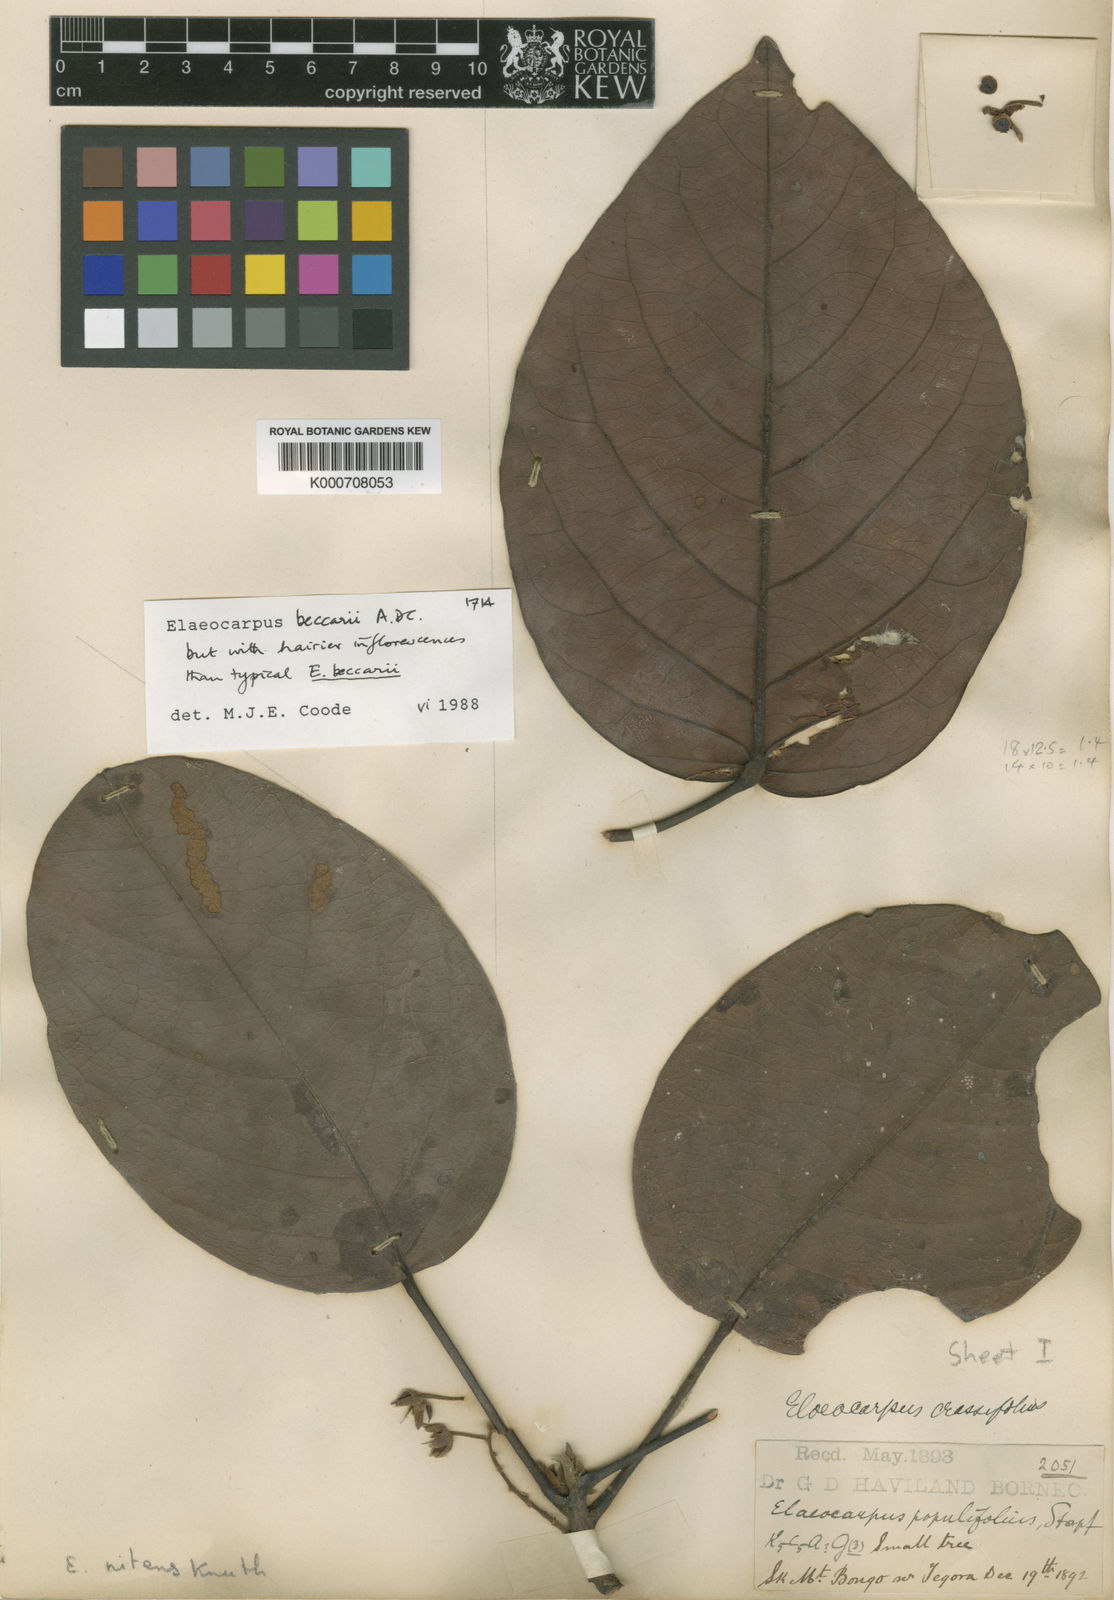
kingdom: Plantae
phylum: Tracheophyta
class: Magnoliopsida
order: Oxalidales
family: Elaeocarpaceae
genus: Elaeocarpus
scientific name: Elaeocarpus beccarii
